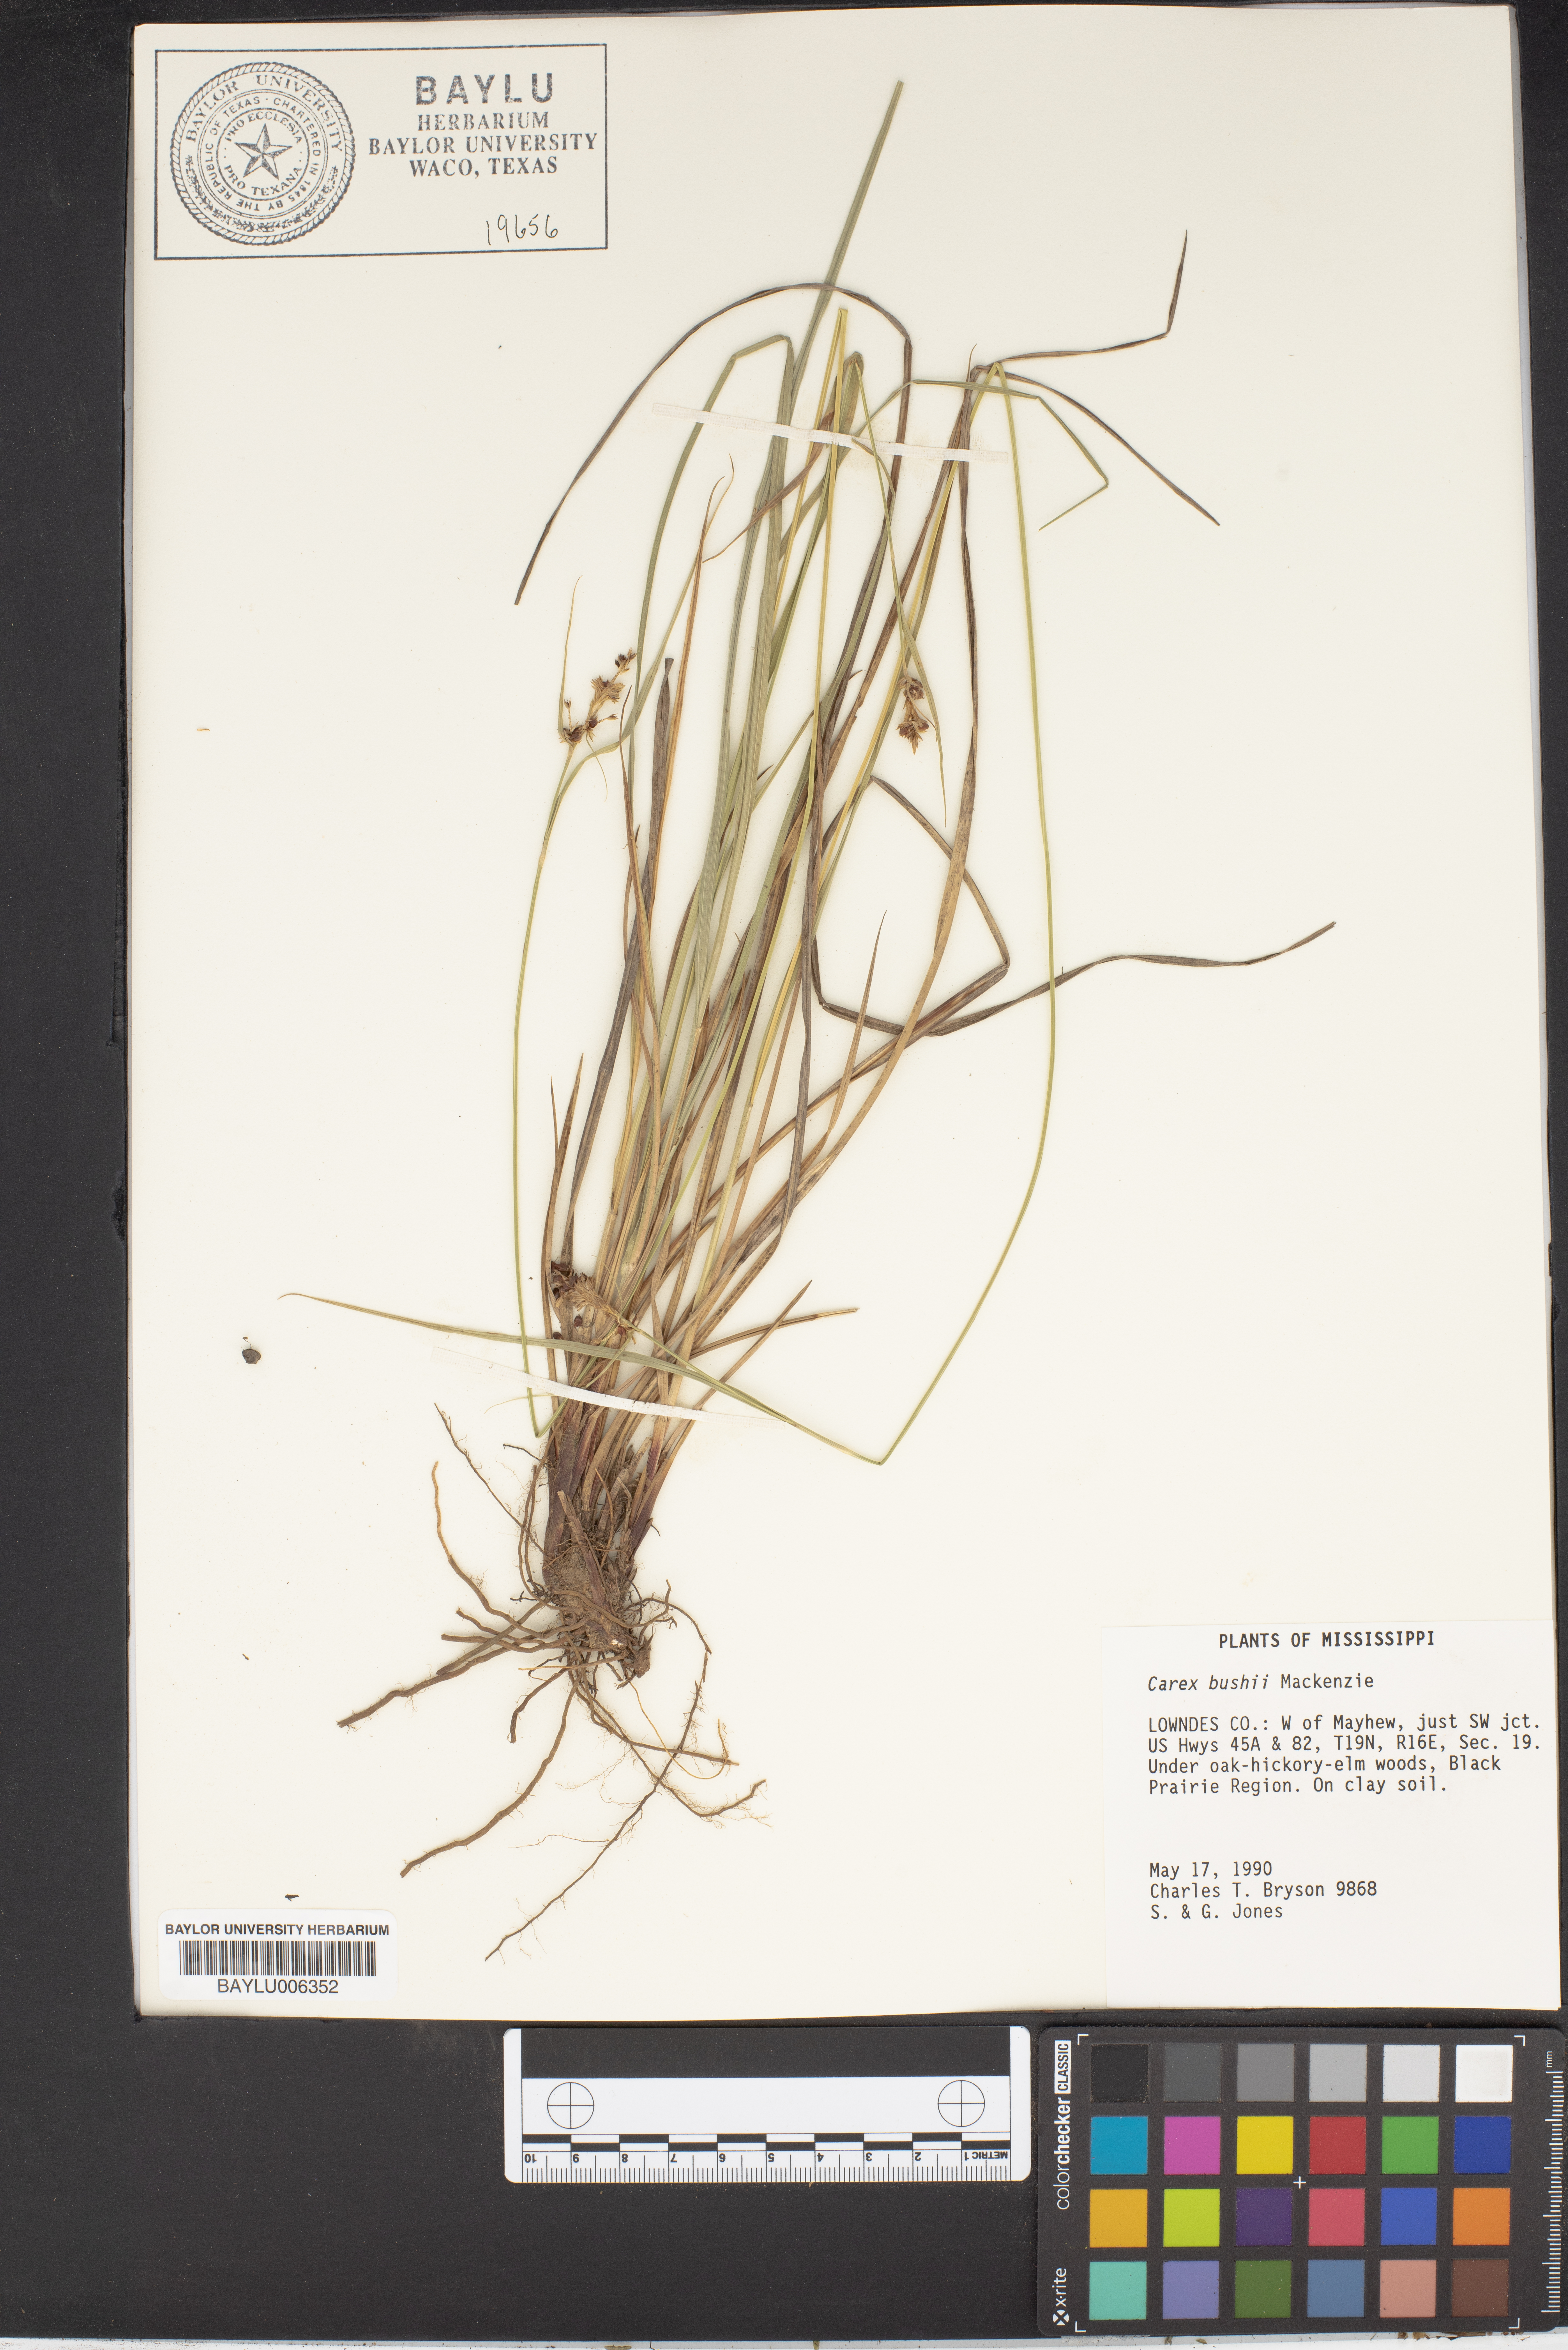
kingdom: Plantae
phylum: Tracheophyta
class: Liliopsida
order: Poales
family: Cyperaceae
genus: Carex
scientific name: Carex bushii
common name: Bush's sedge
